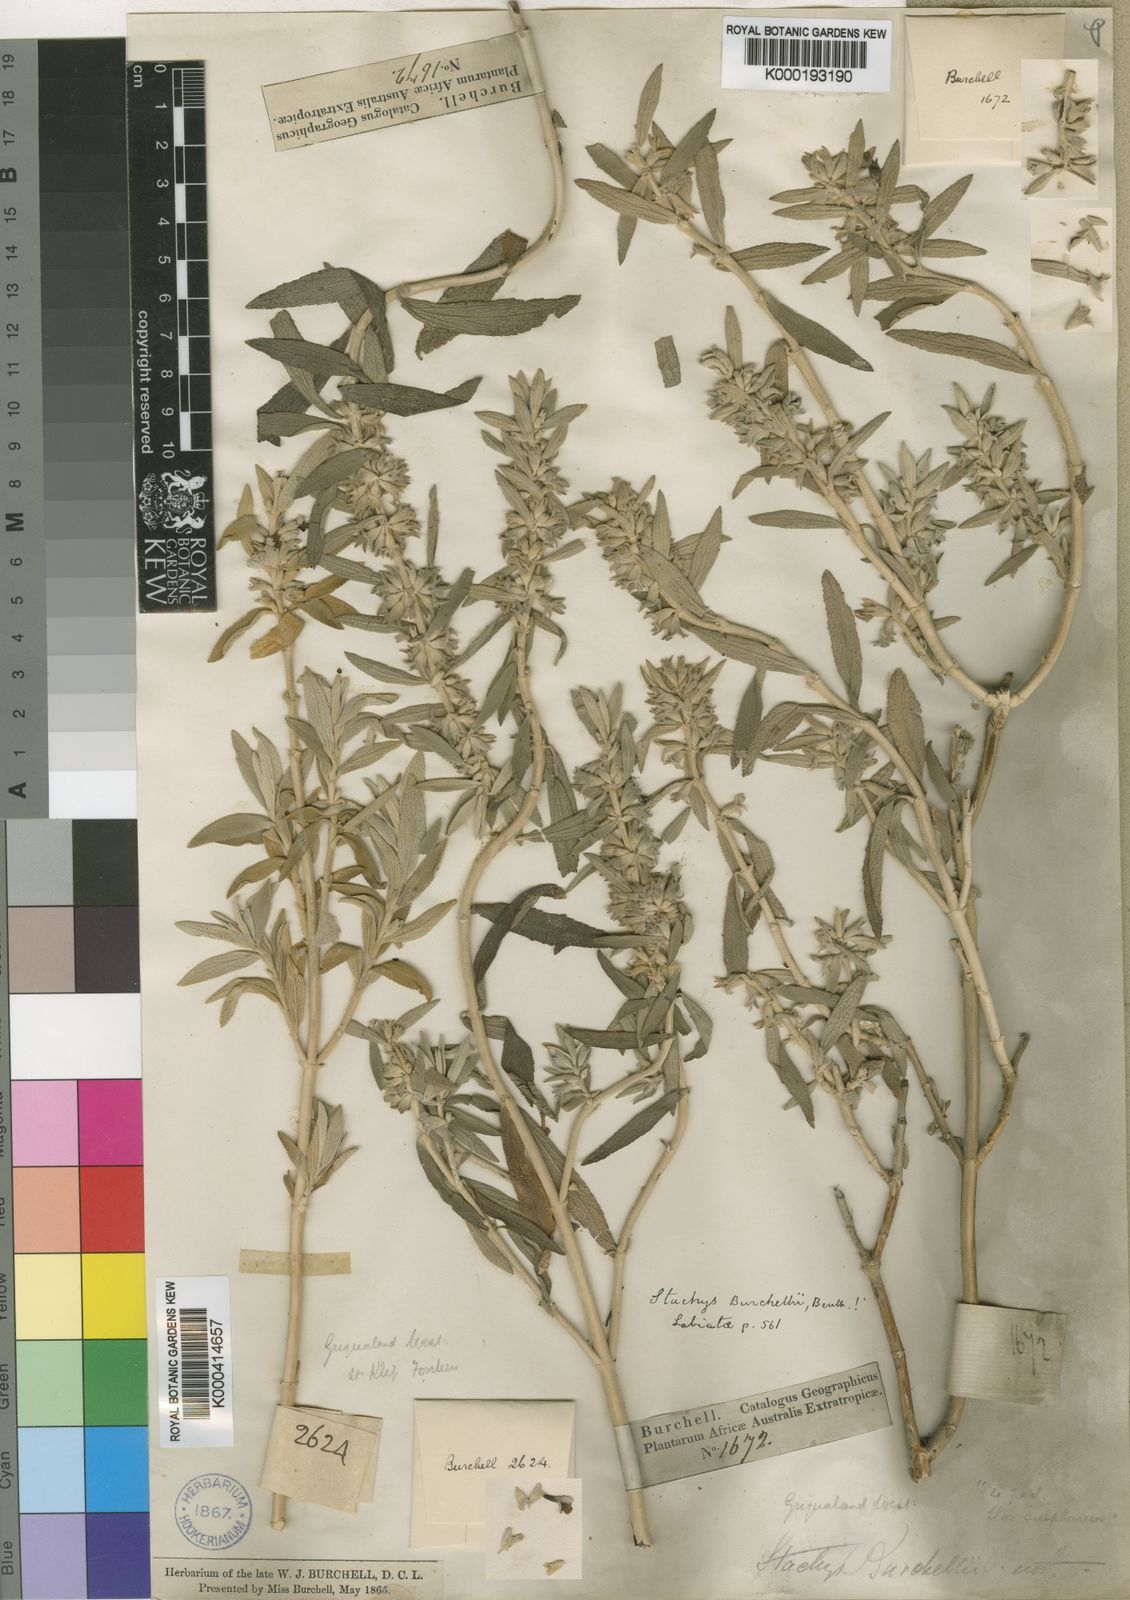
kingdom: Plantae
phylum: Tracheophyta
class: Magnoliopsida
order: Lamiales
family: Lamiaceae
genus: Stachys
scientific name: Stachys burchelliana
